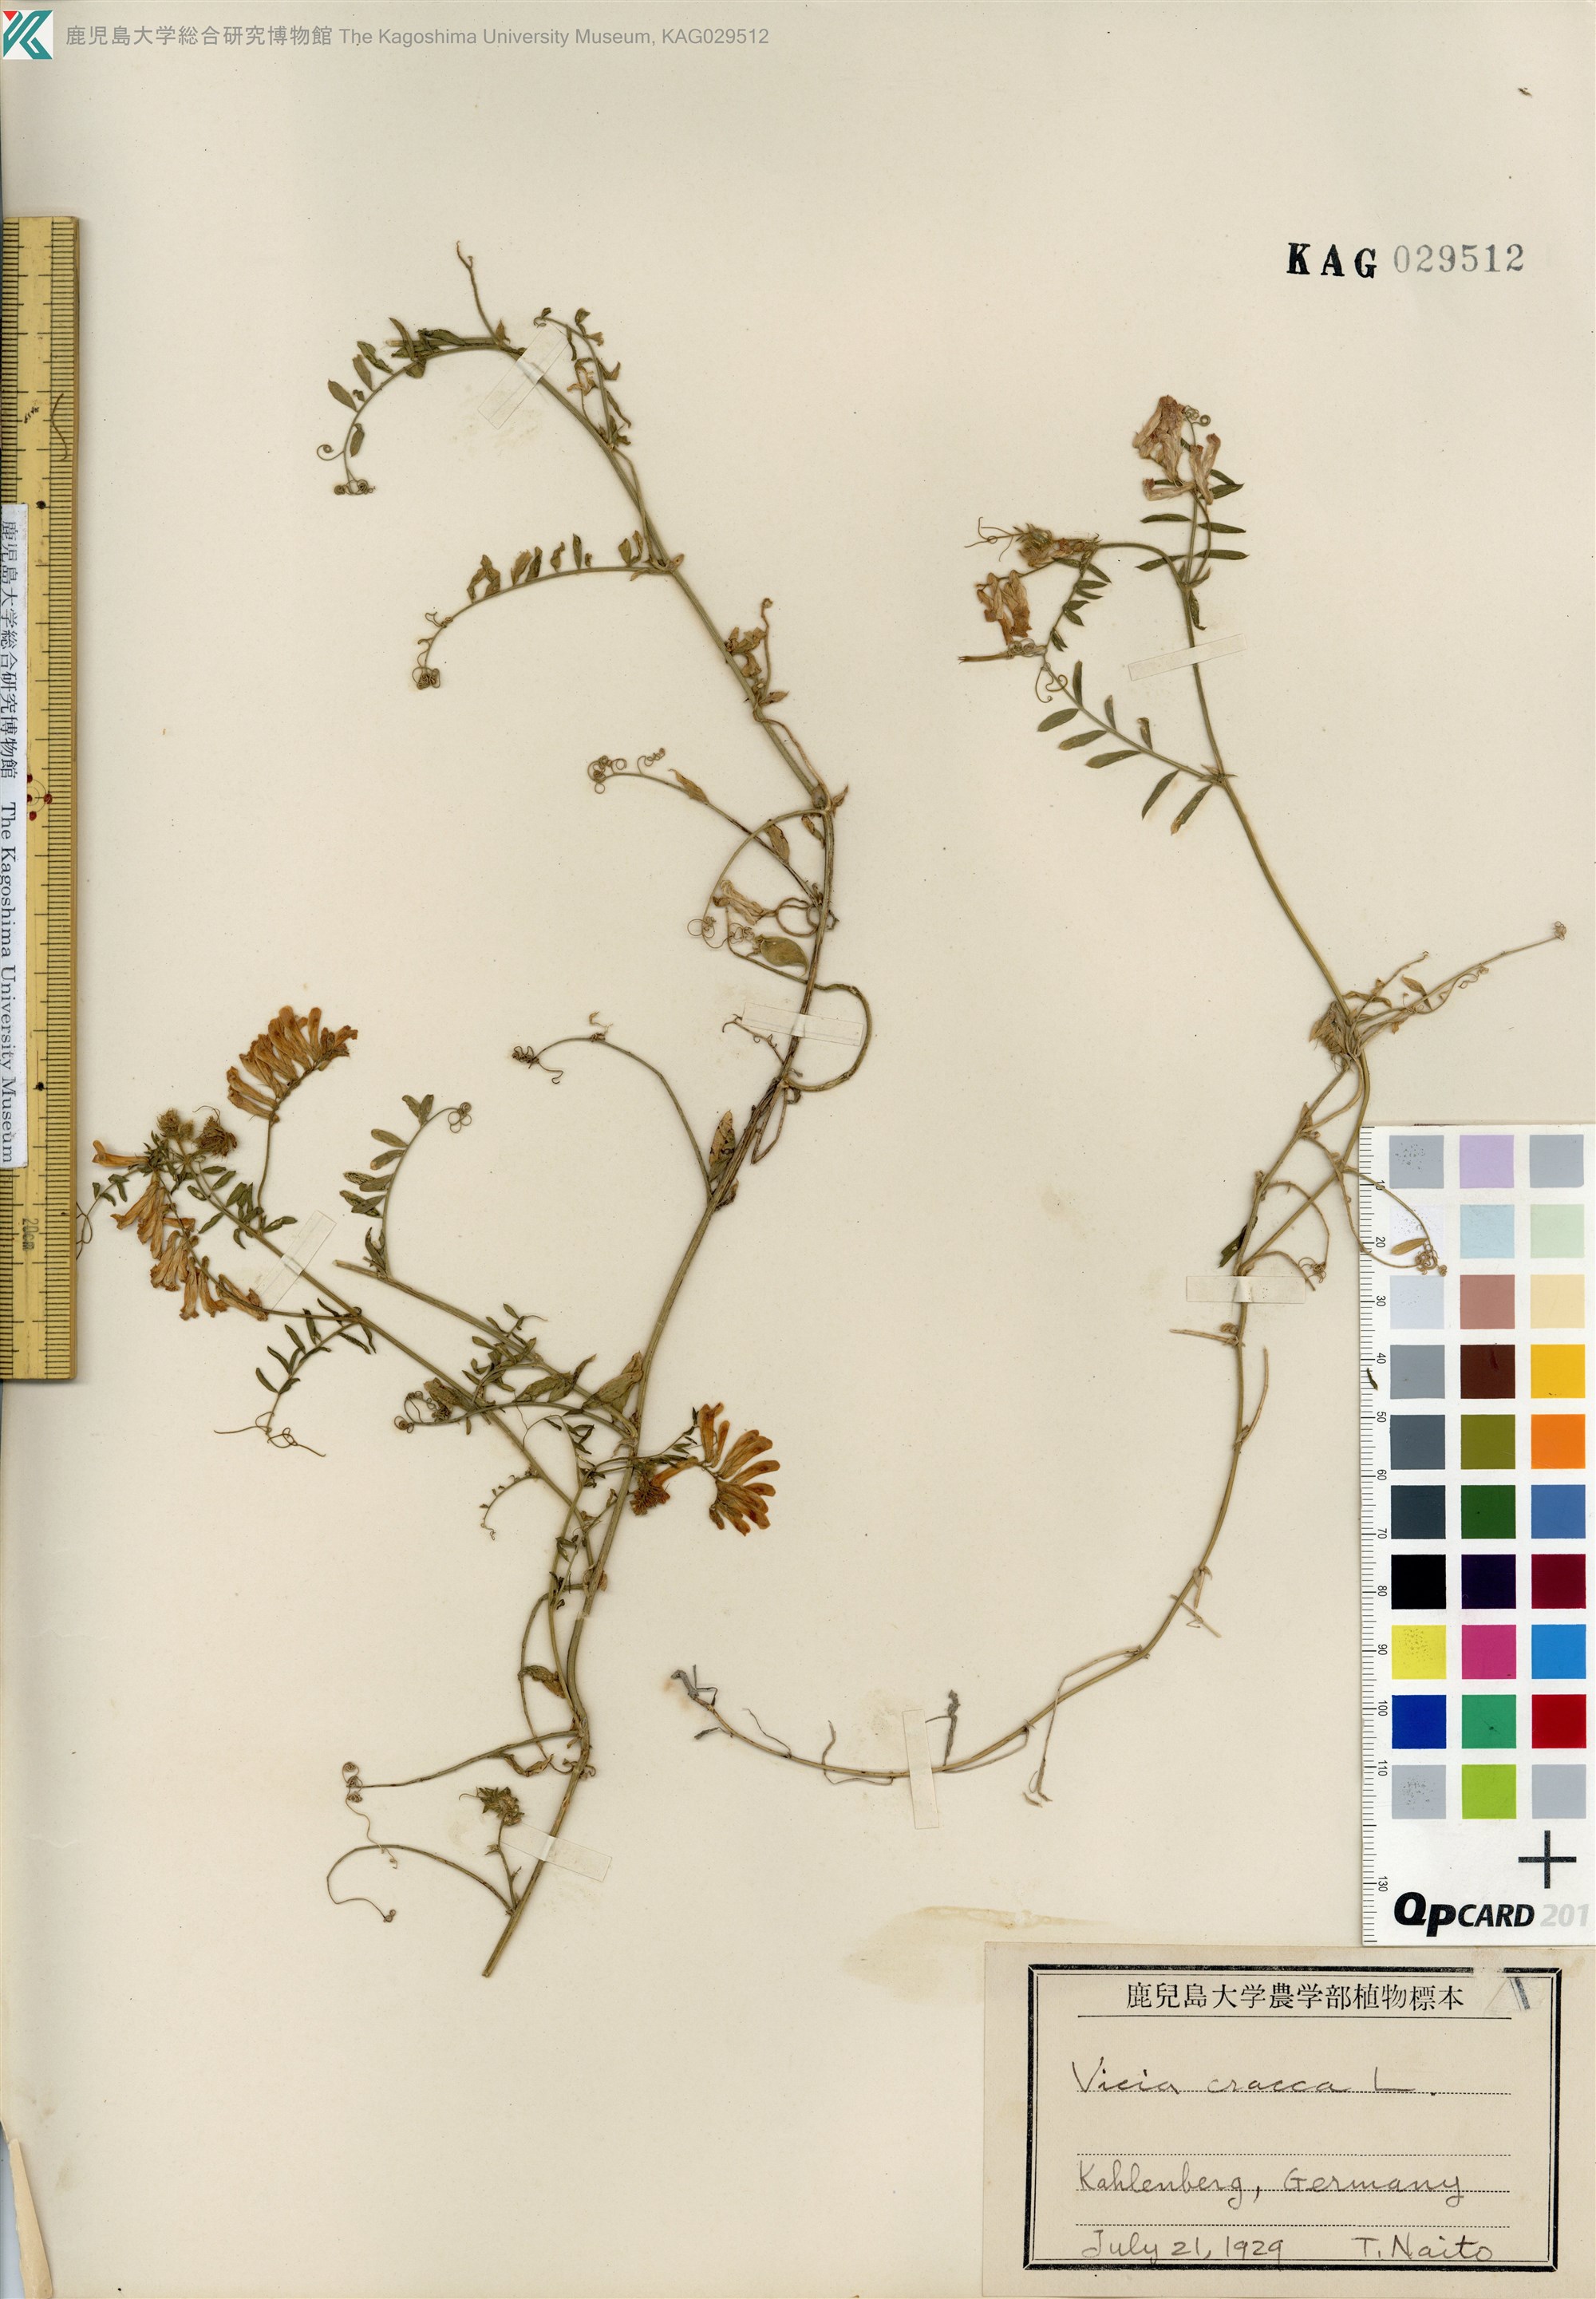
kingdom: Plantae
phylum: Tracheophyta
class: Magnoliopsida
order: Fabales
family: Fabaceae
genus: Vicia
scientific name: Vicia cracca
